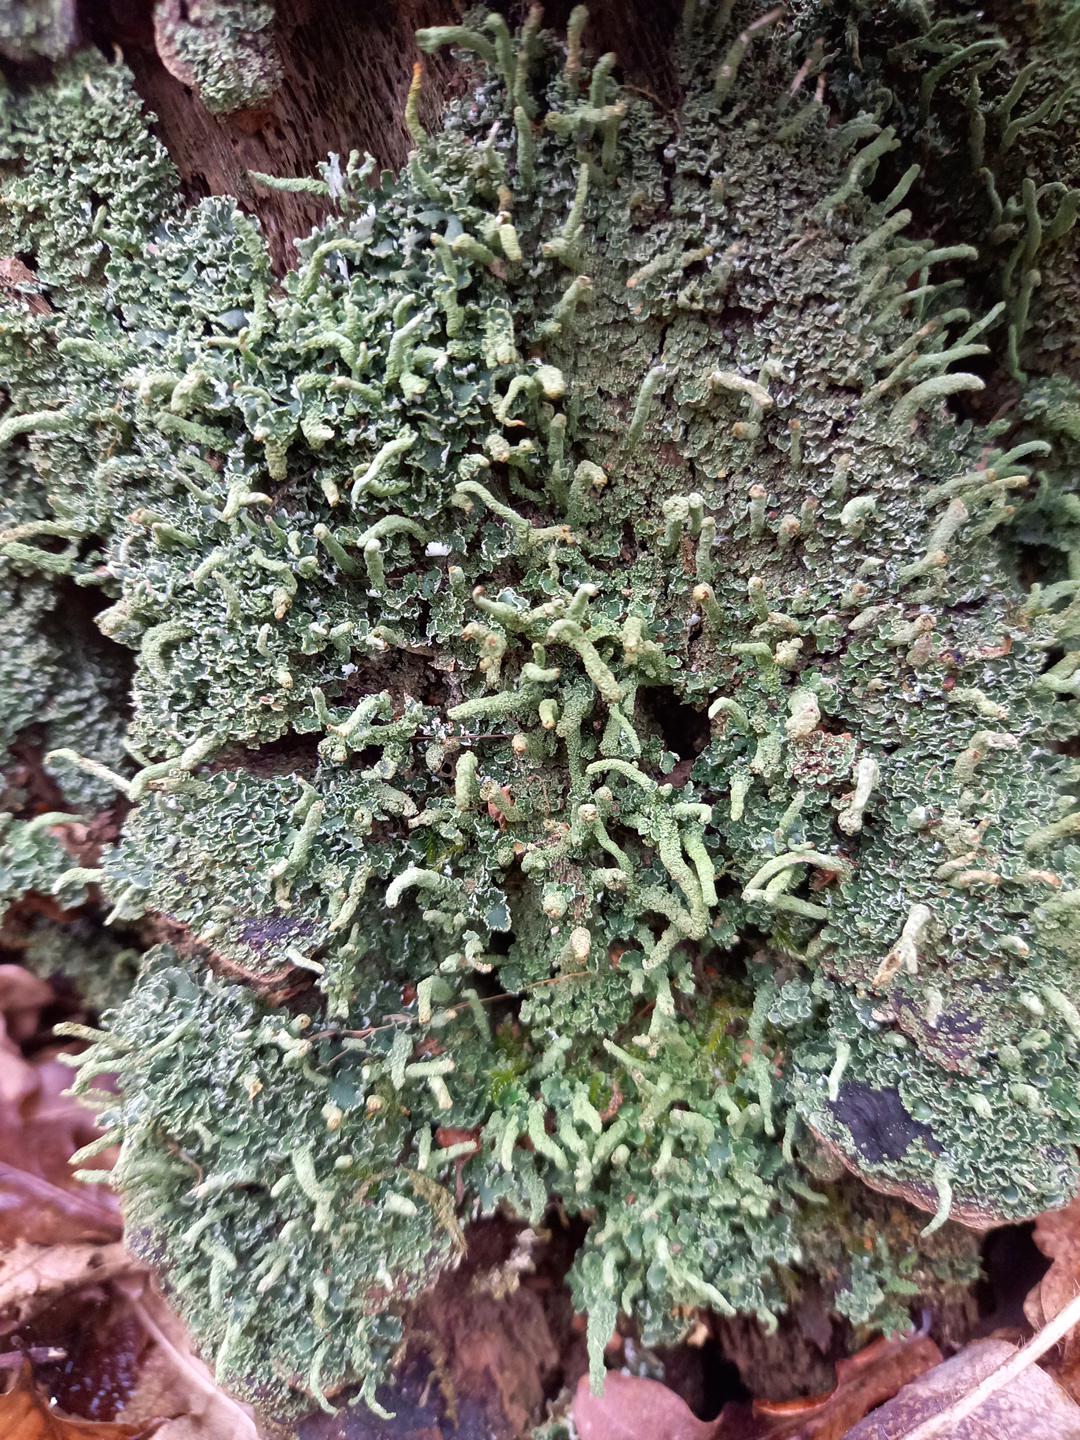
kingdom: Fungi
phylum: Ascomycota
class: Lecanoromycetes
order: Lecanorales
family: Cladoniaceae
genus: Cladonia
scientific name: Cladonia coniocraea
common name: træfods-bægerlav
